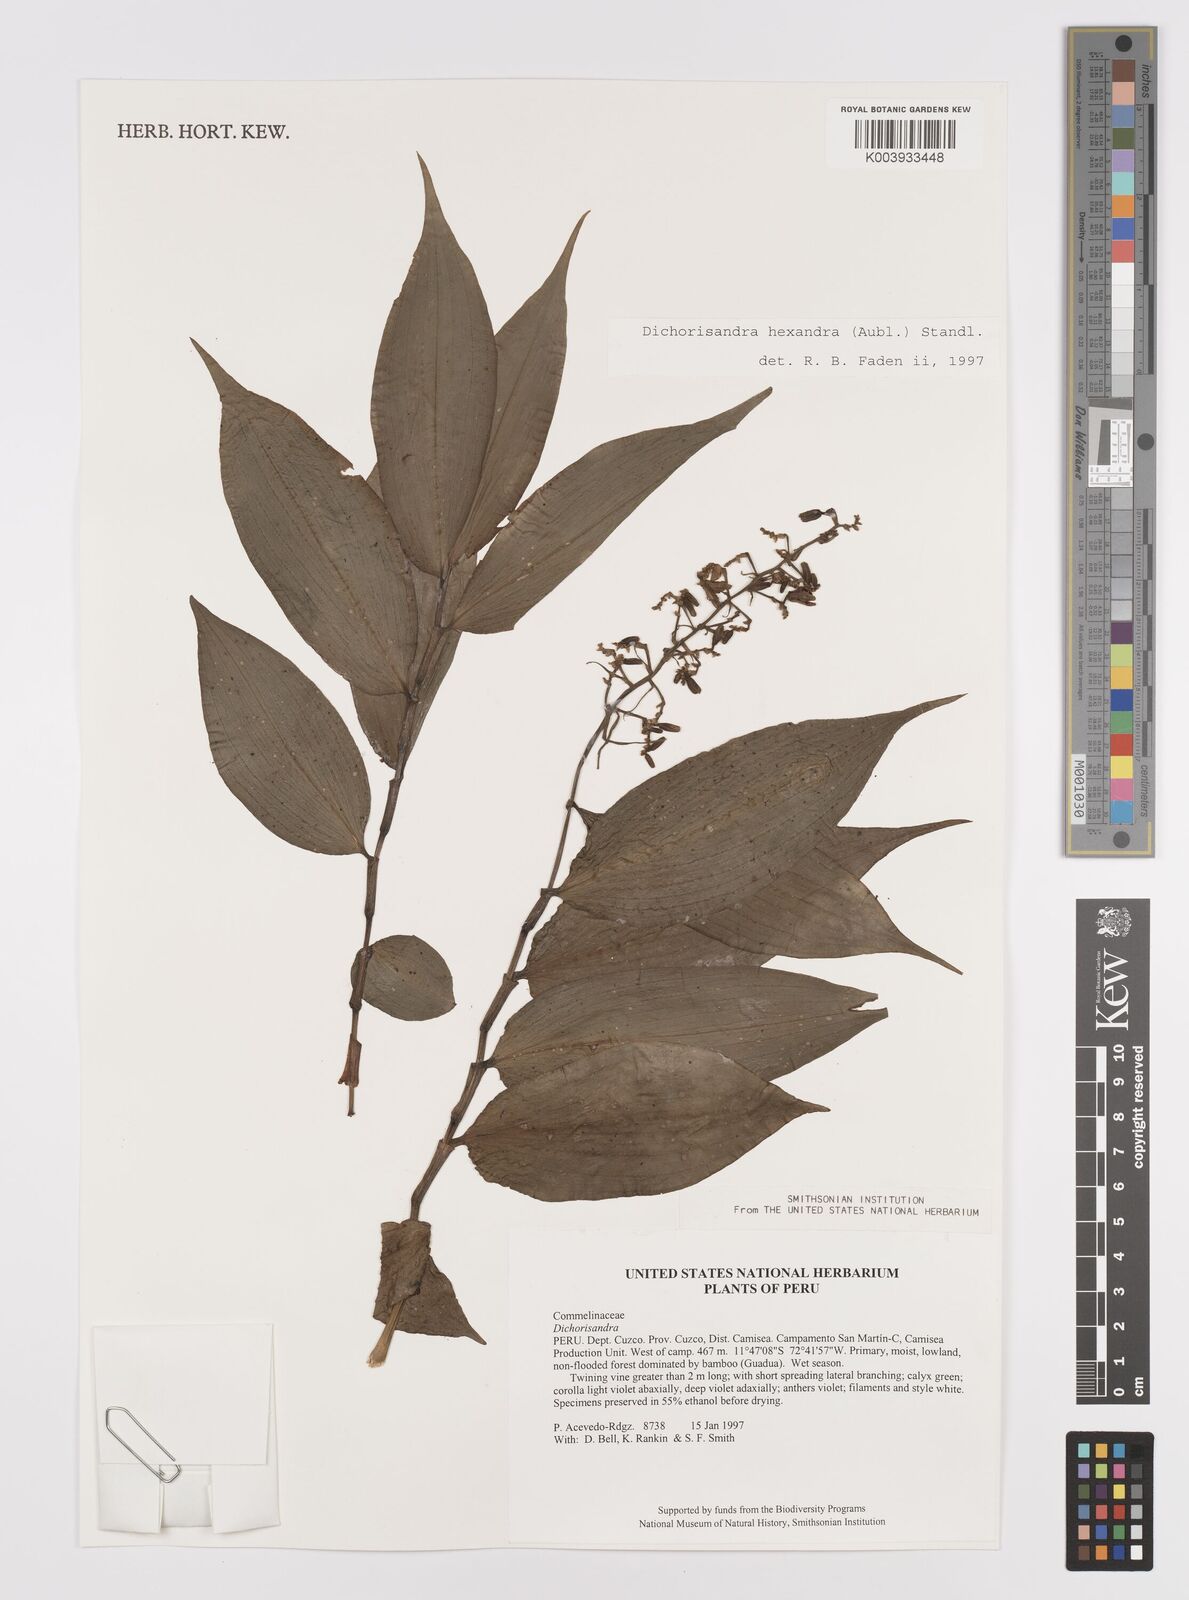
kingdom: Plantae
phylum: Tracheophyta
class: Liliopsida
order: Commelinales
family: Commelinaceae
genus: Dichorisandra
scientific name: Dichorisandra hexandra
